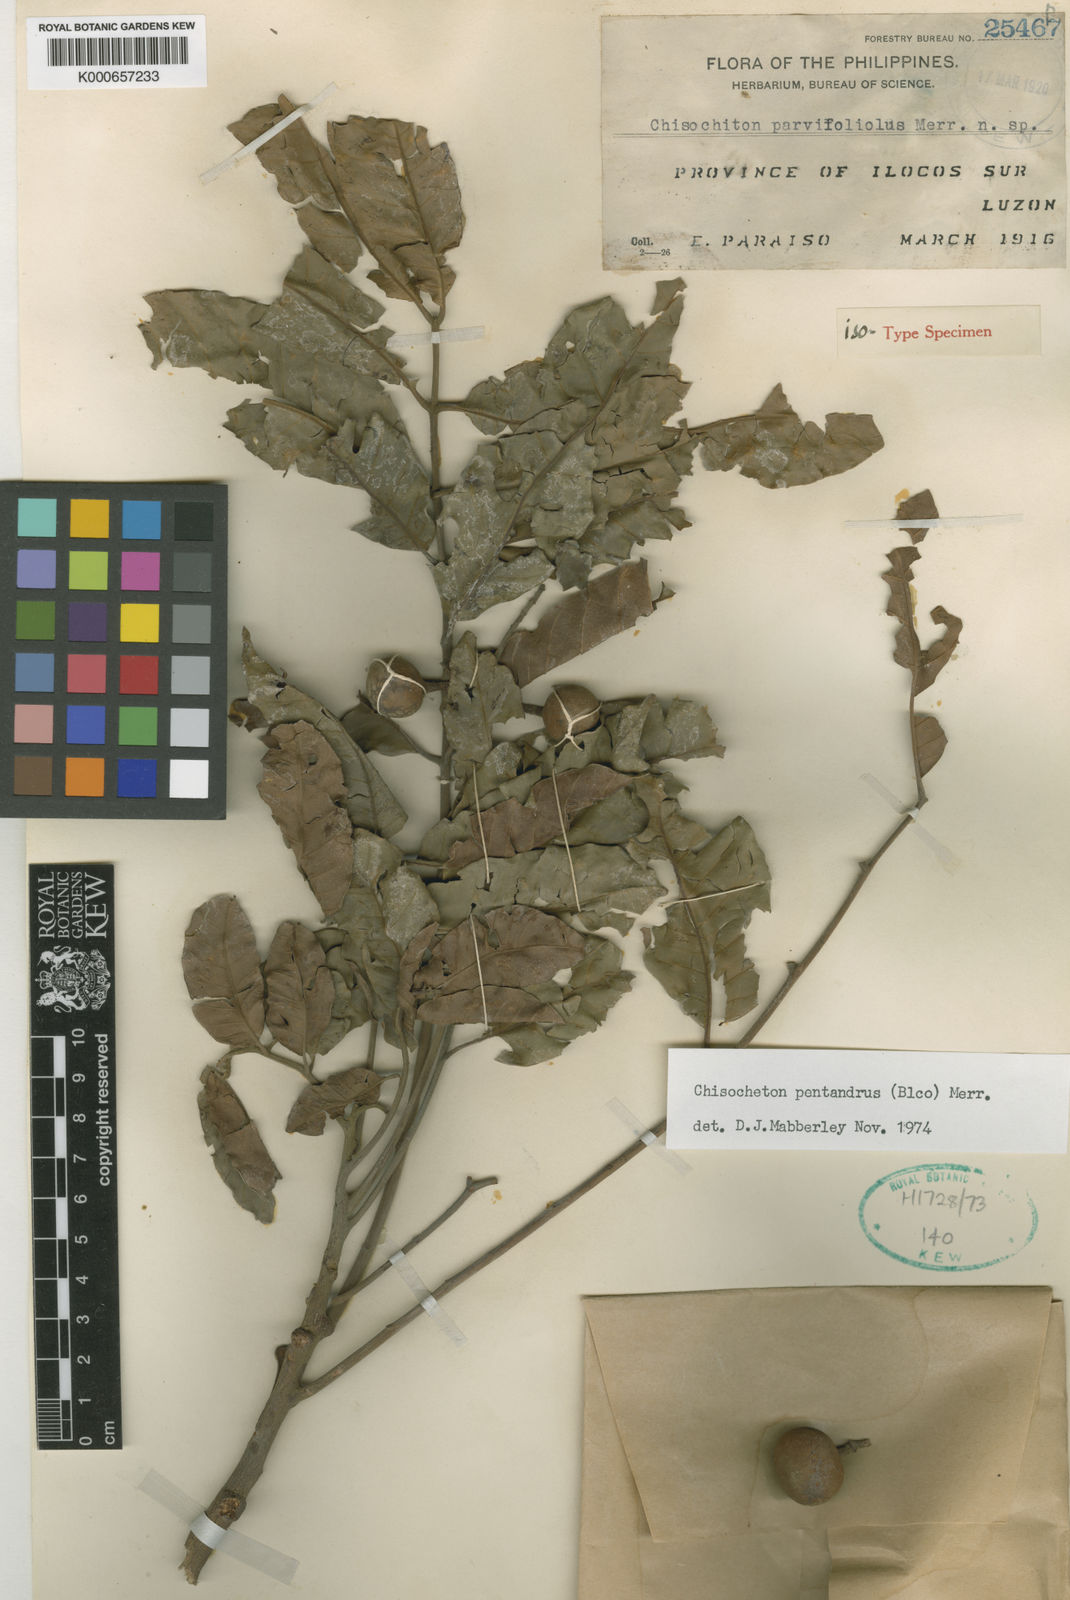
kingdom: Plantae
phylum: Tracheophyta
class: Magnoliopsida
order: Sapindales
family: Meliaceae
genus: Chisocheton
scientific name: Chisocheton pentandrus
